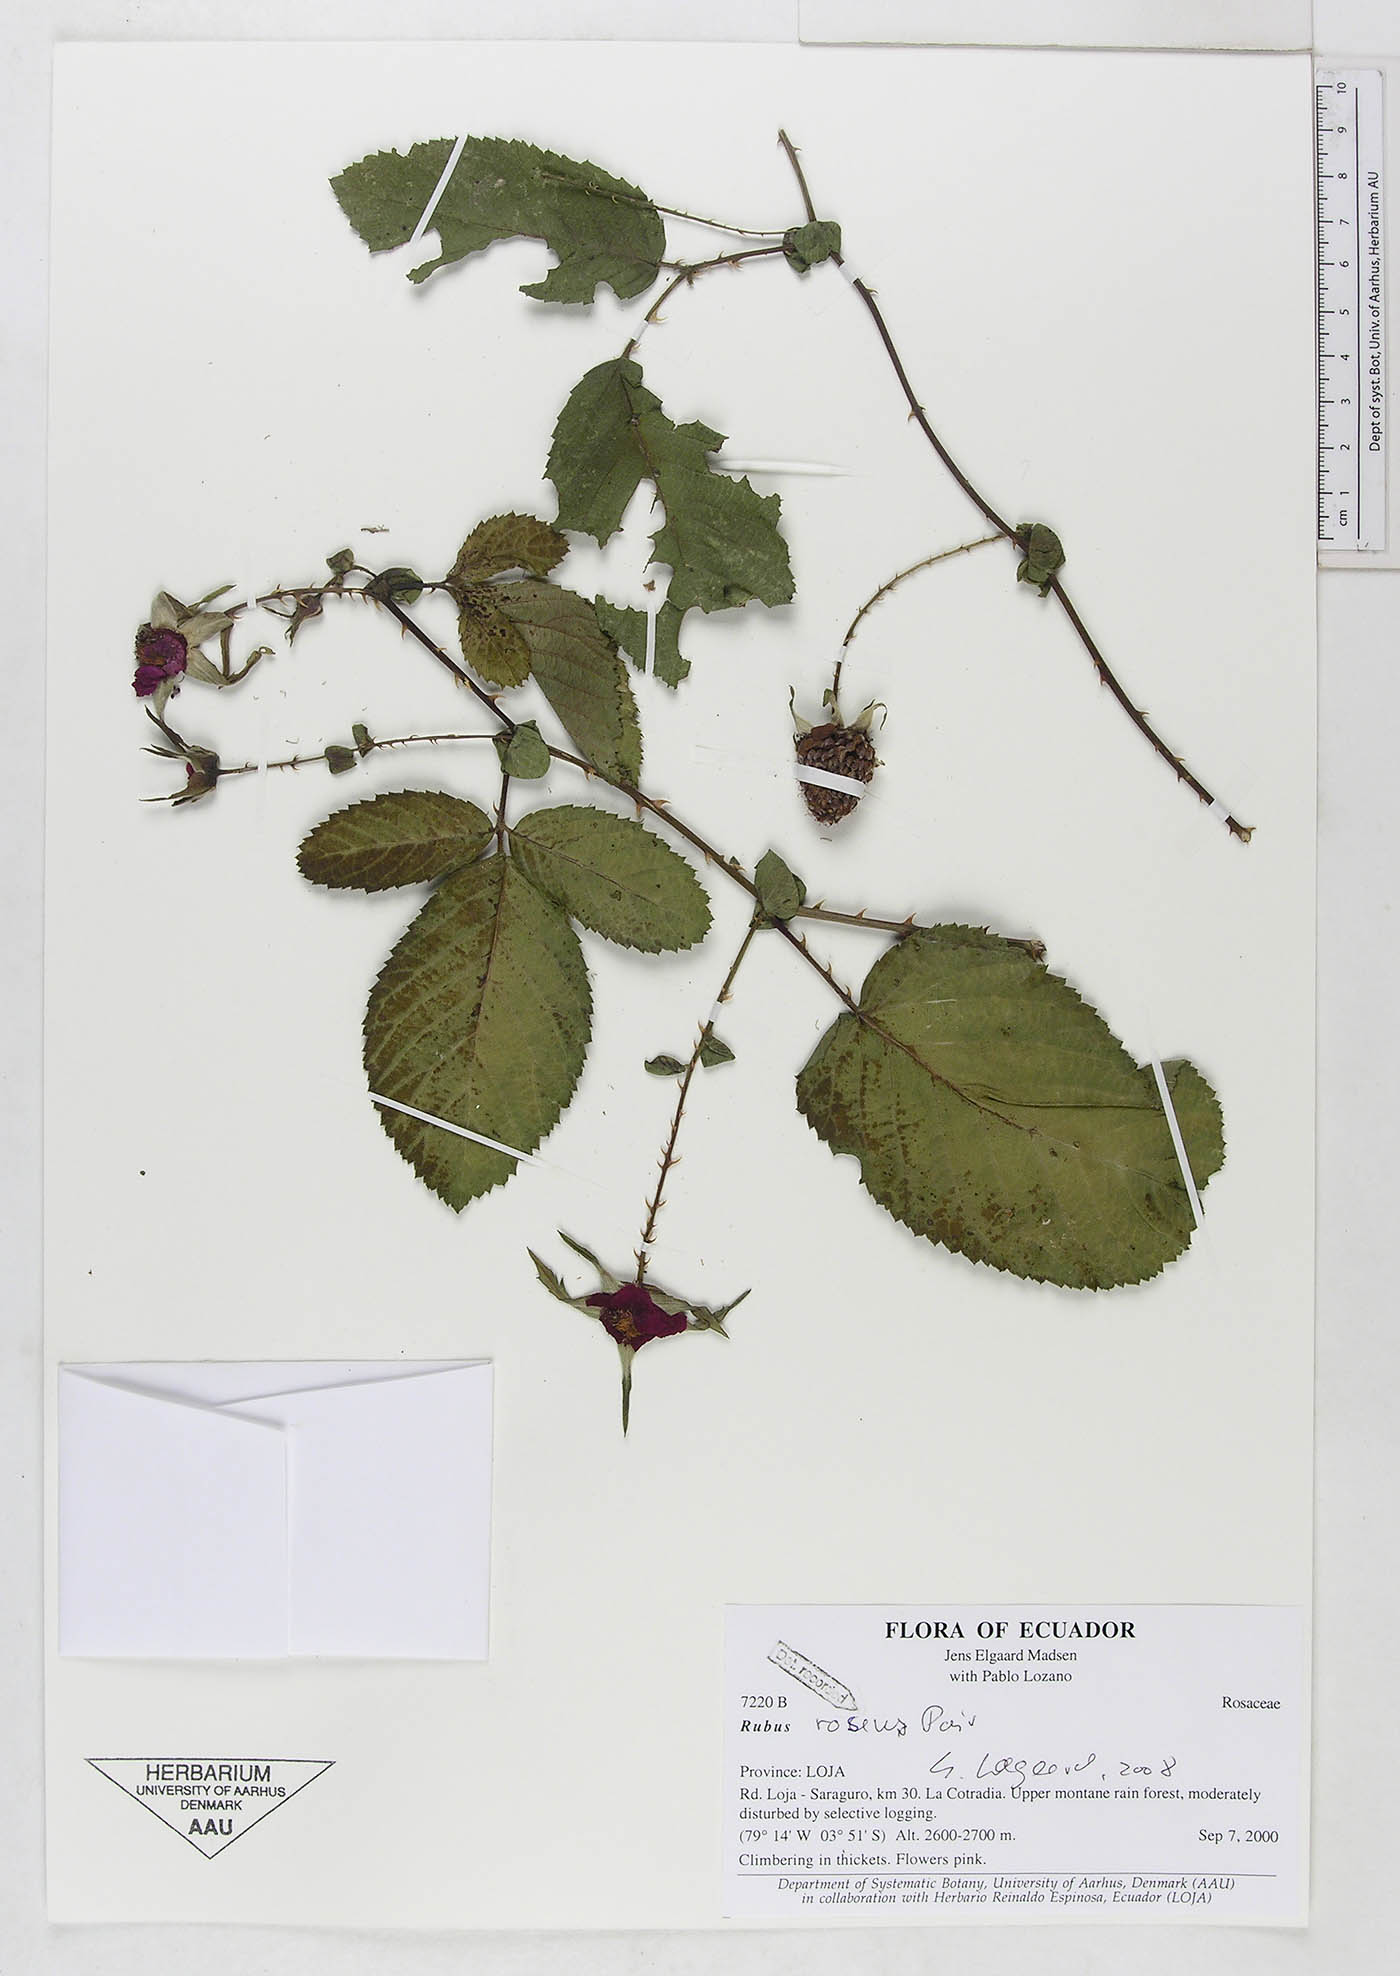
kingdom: Plantae
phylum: Tracheophyta
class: Magnoliopsida
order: Rosales
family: Rosaceae
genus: Rubus
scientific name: Rubus roseus
